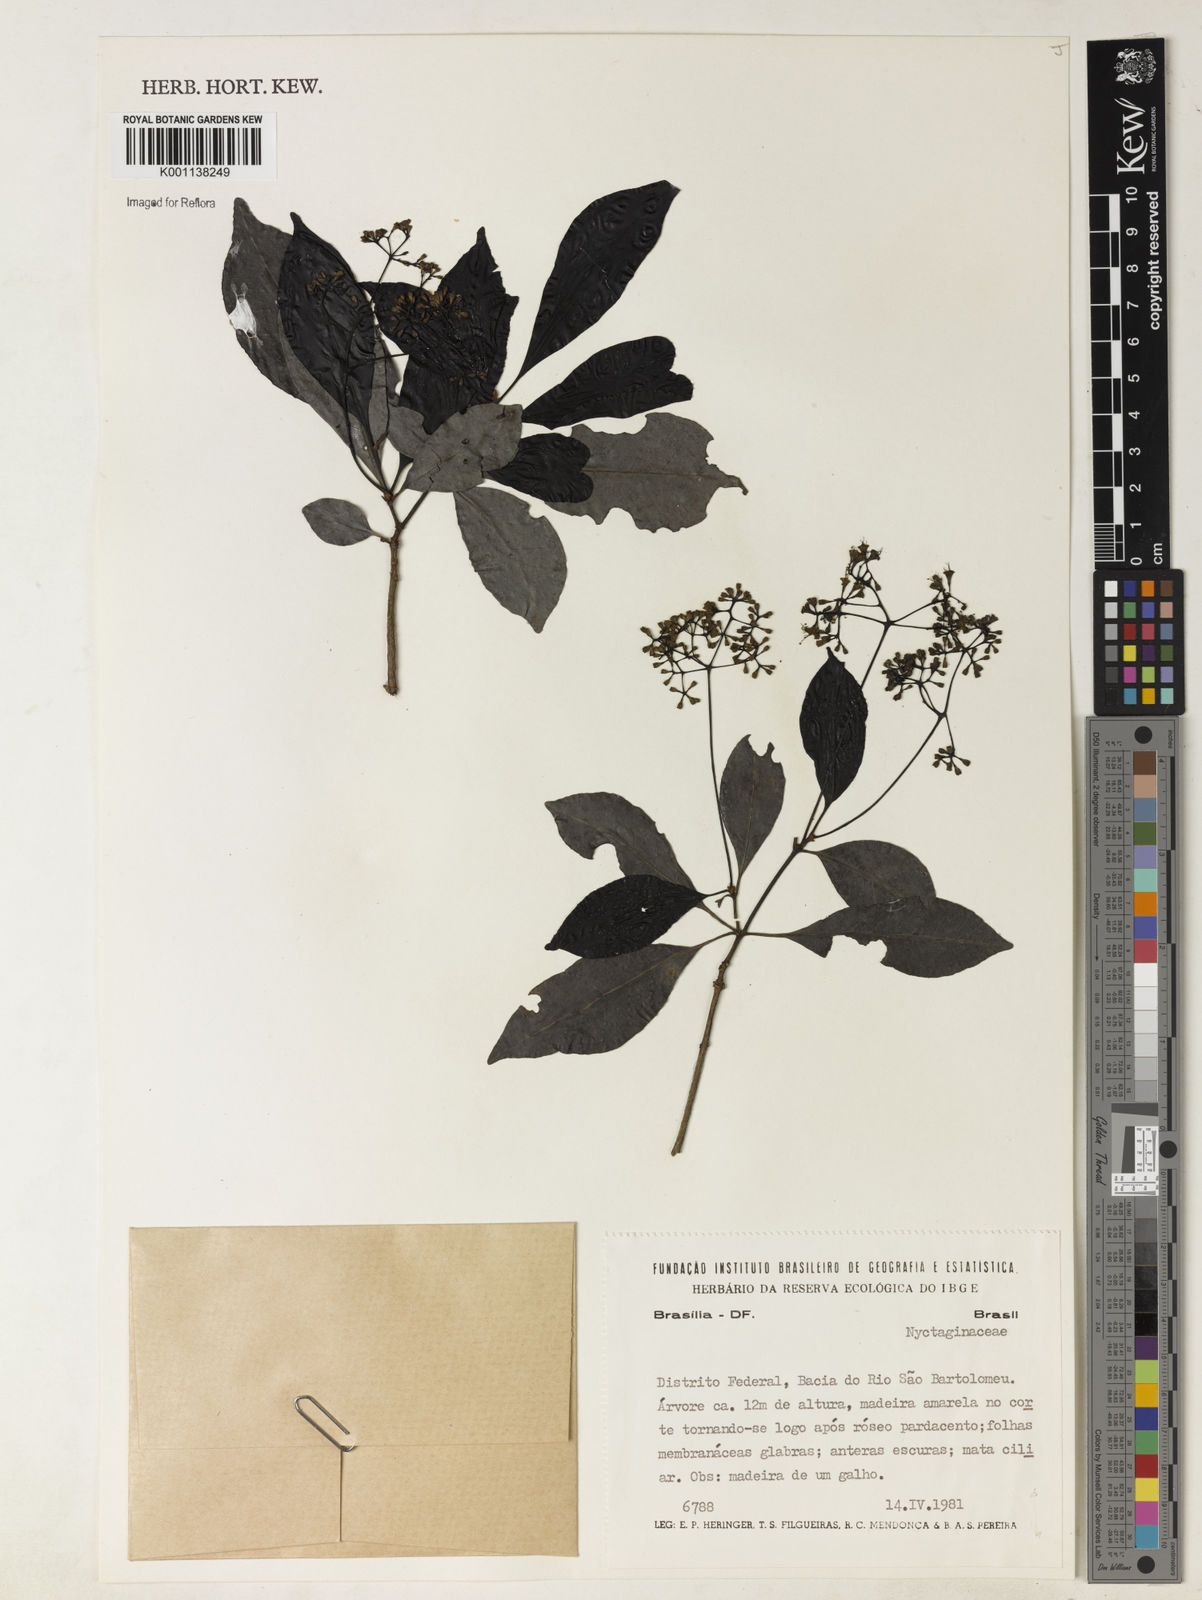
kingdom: Plantae
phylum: Tracheophyta
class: Magnoliopsida
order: Caryophyllales
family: Nyctaginaceae
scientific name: Nyctaginaceae
